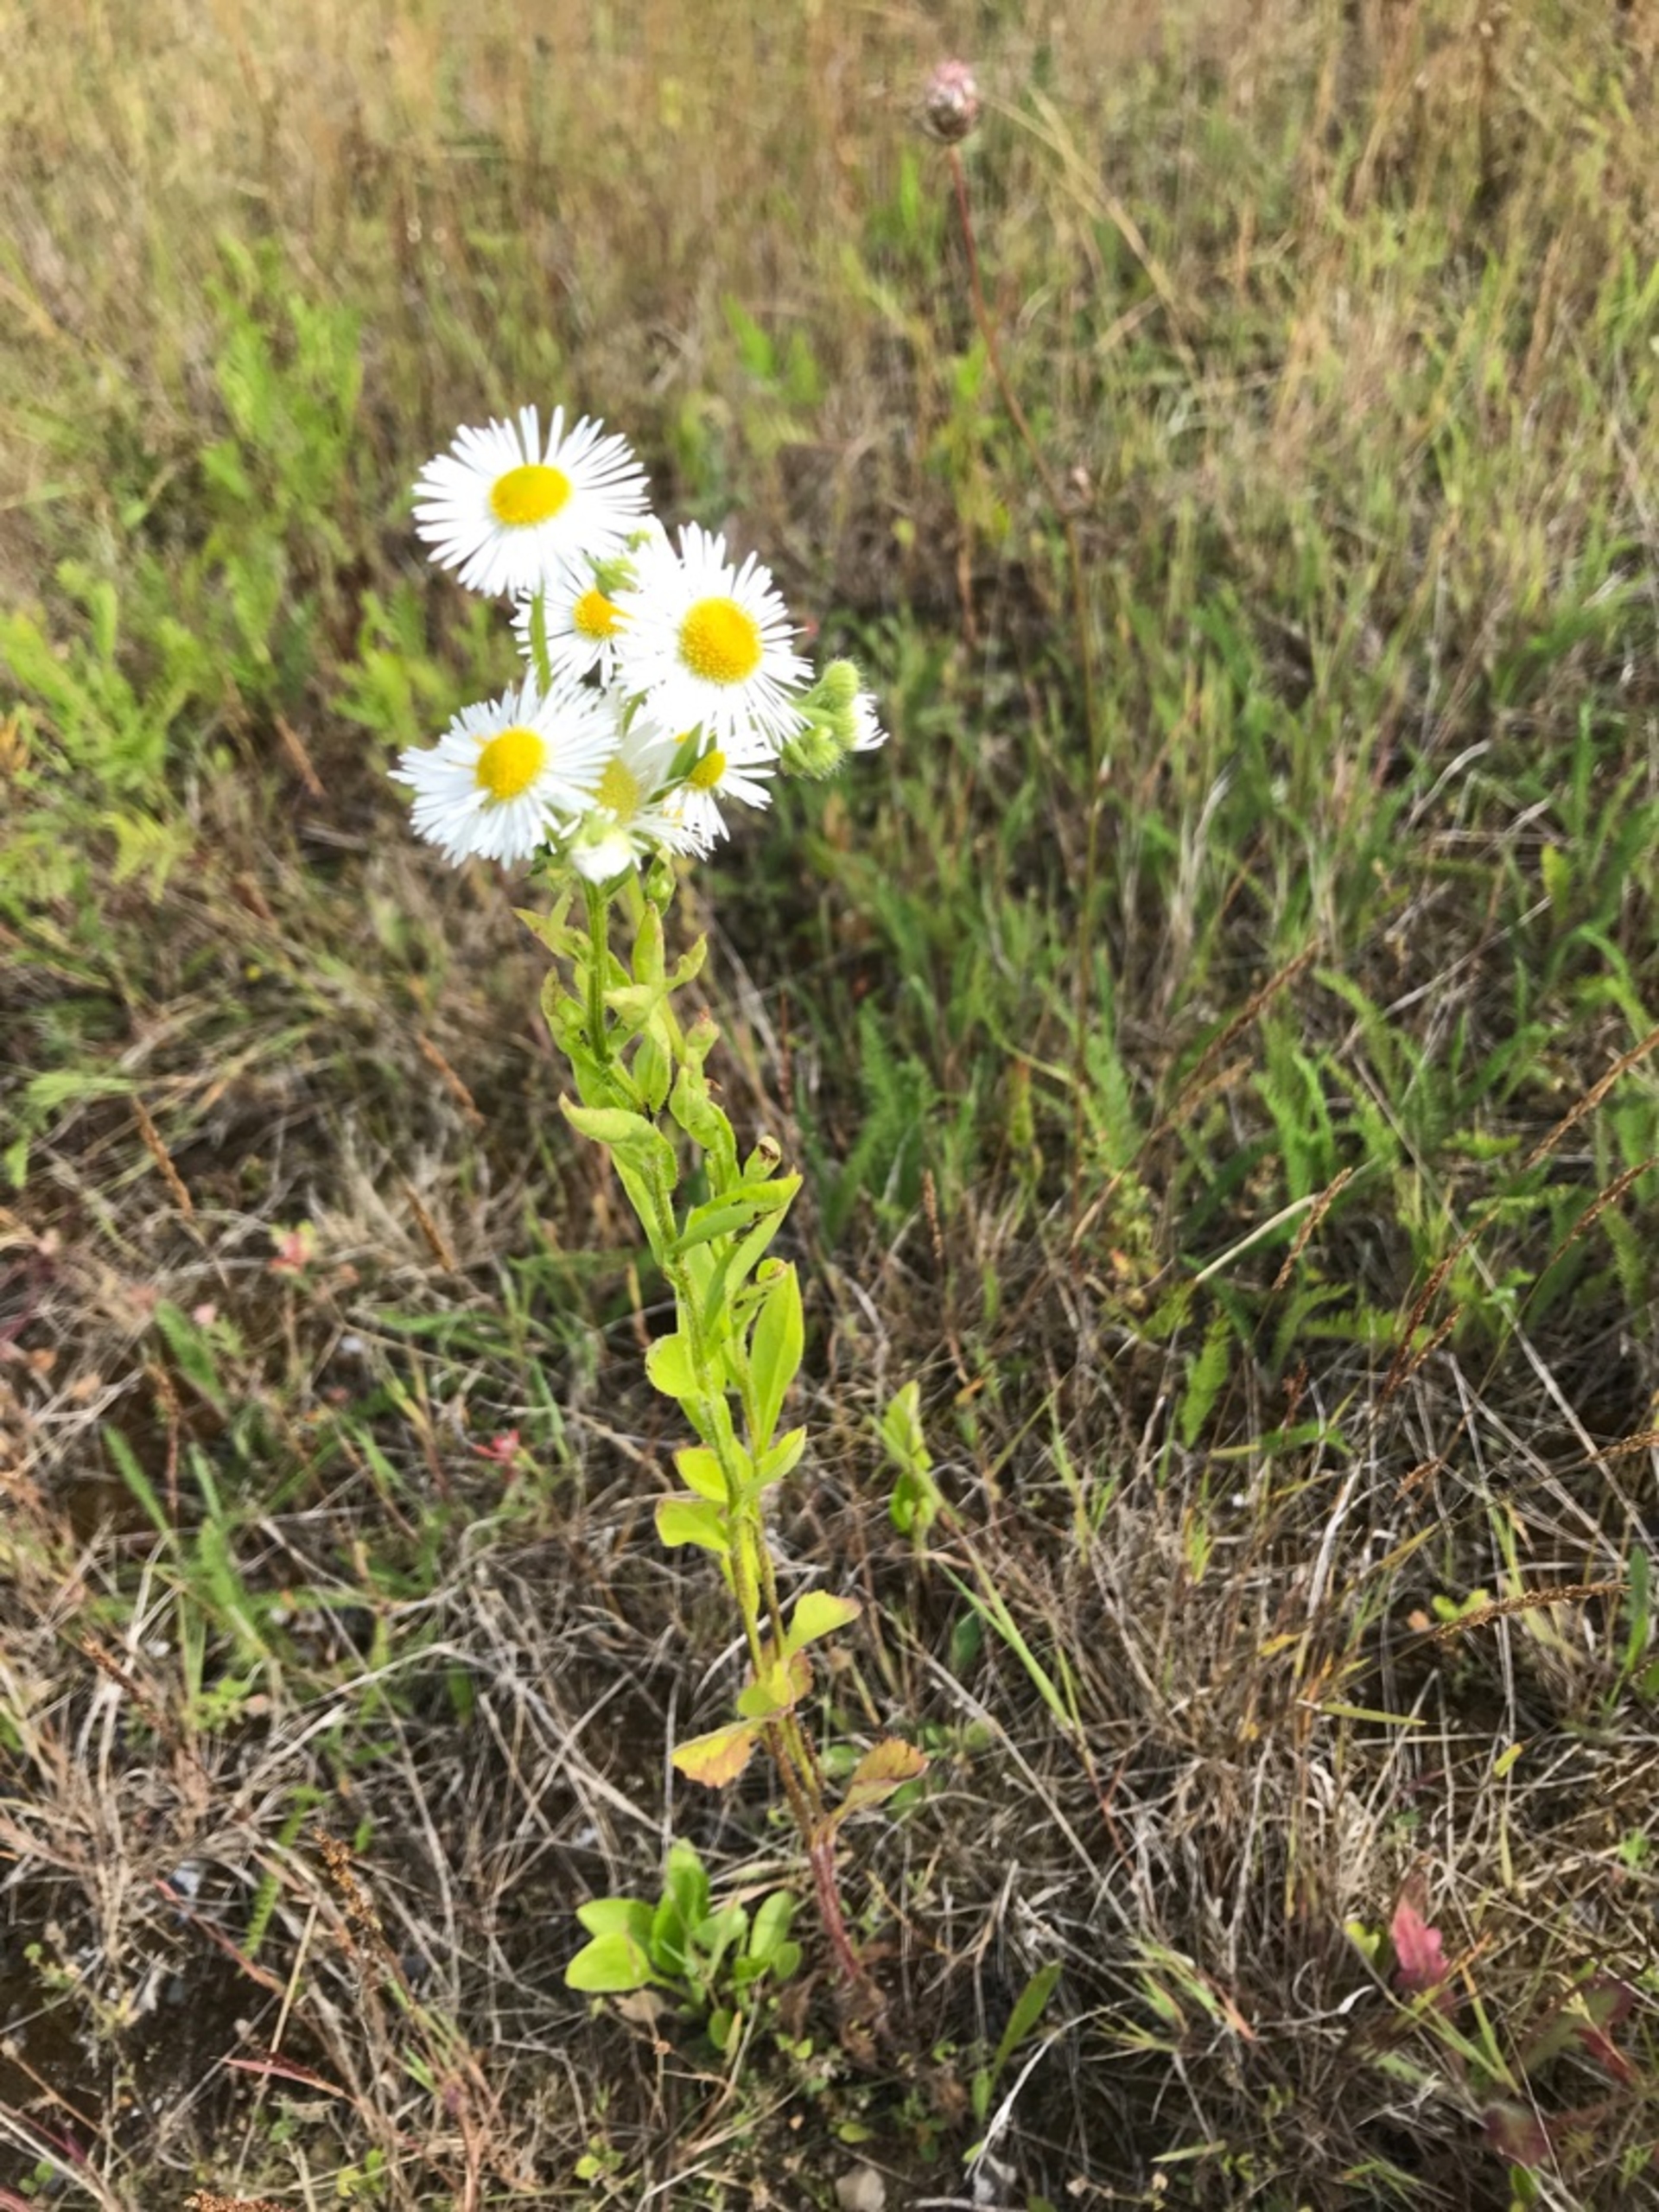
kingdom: Plantae
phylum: Tracheophyta
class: Magnoliopsida
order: Asterales
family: Asteraceae
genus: Erigeron
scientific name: Erigeron annuus
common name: Smalstråle
